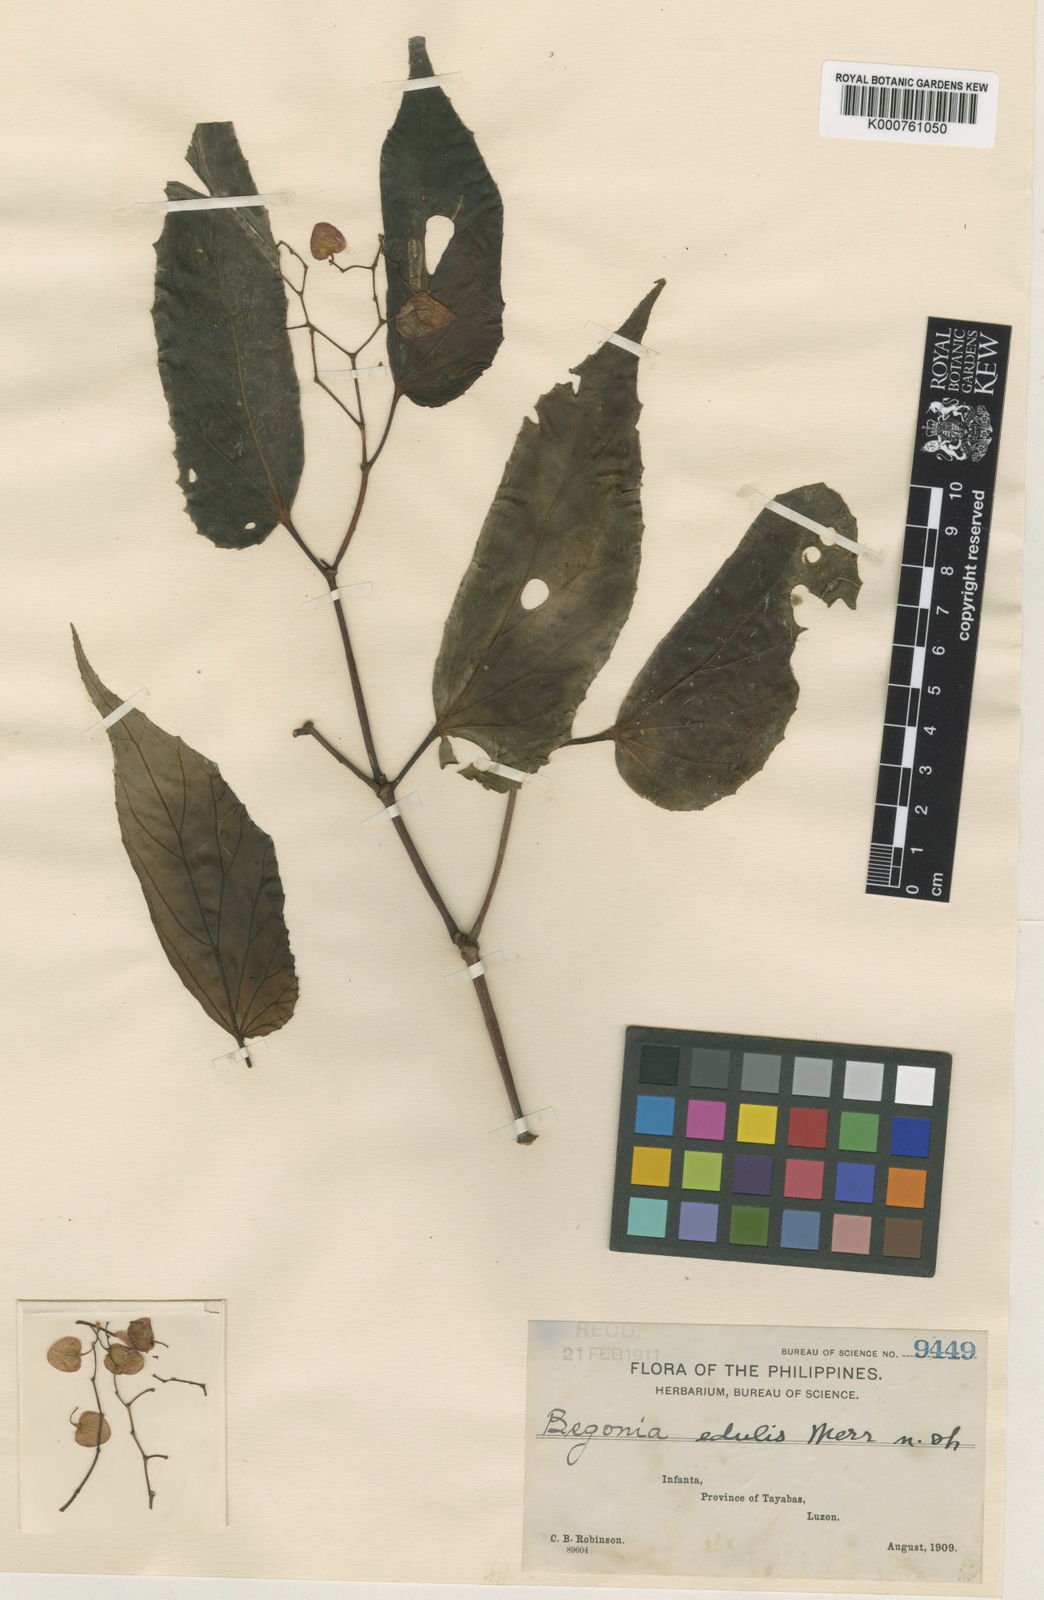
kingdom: Plantae
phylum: Tracheophyta
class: Magnoliopsida
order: Cucurbitales
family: Begoniaceae
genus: Begonia
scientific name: Begonia
